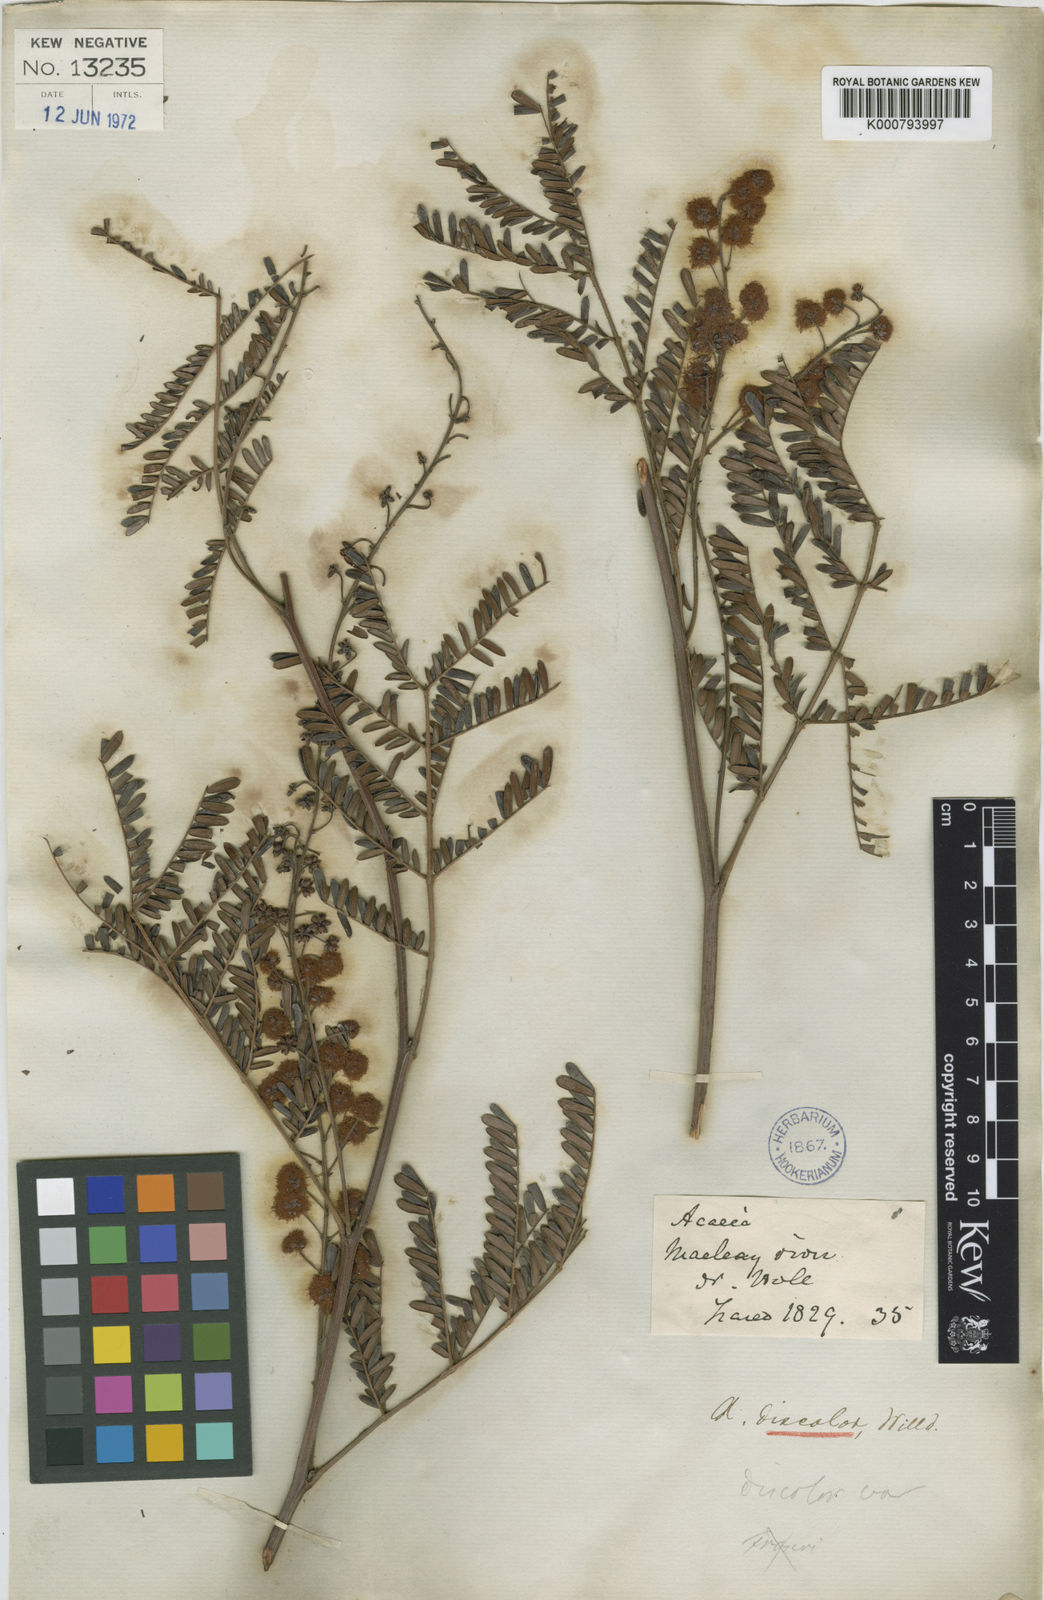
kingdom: Plantae
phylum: Tracheophyta
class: Magnoliopsida
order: Fabales
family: Fabaceae
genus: Acacia
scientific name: Acacia terminalis
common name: Cedar wattle
